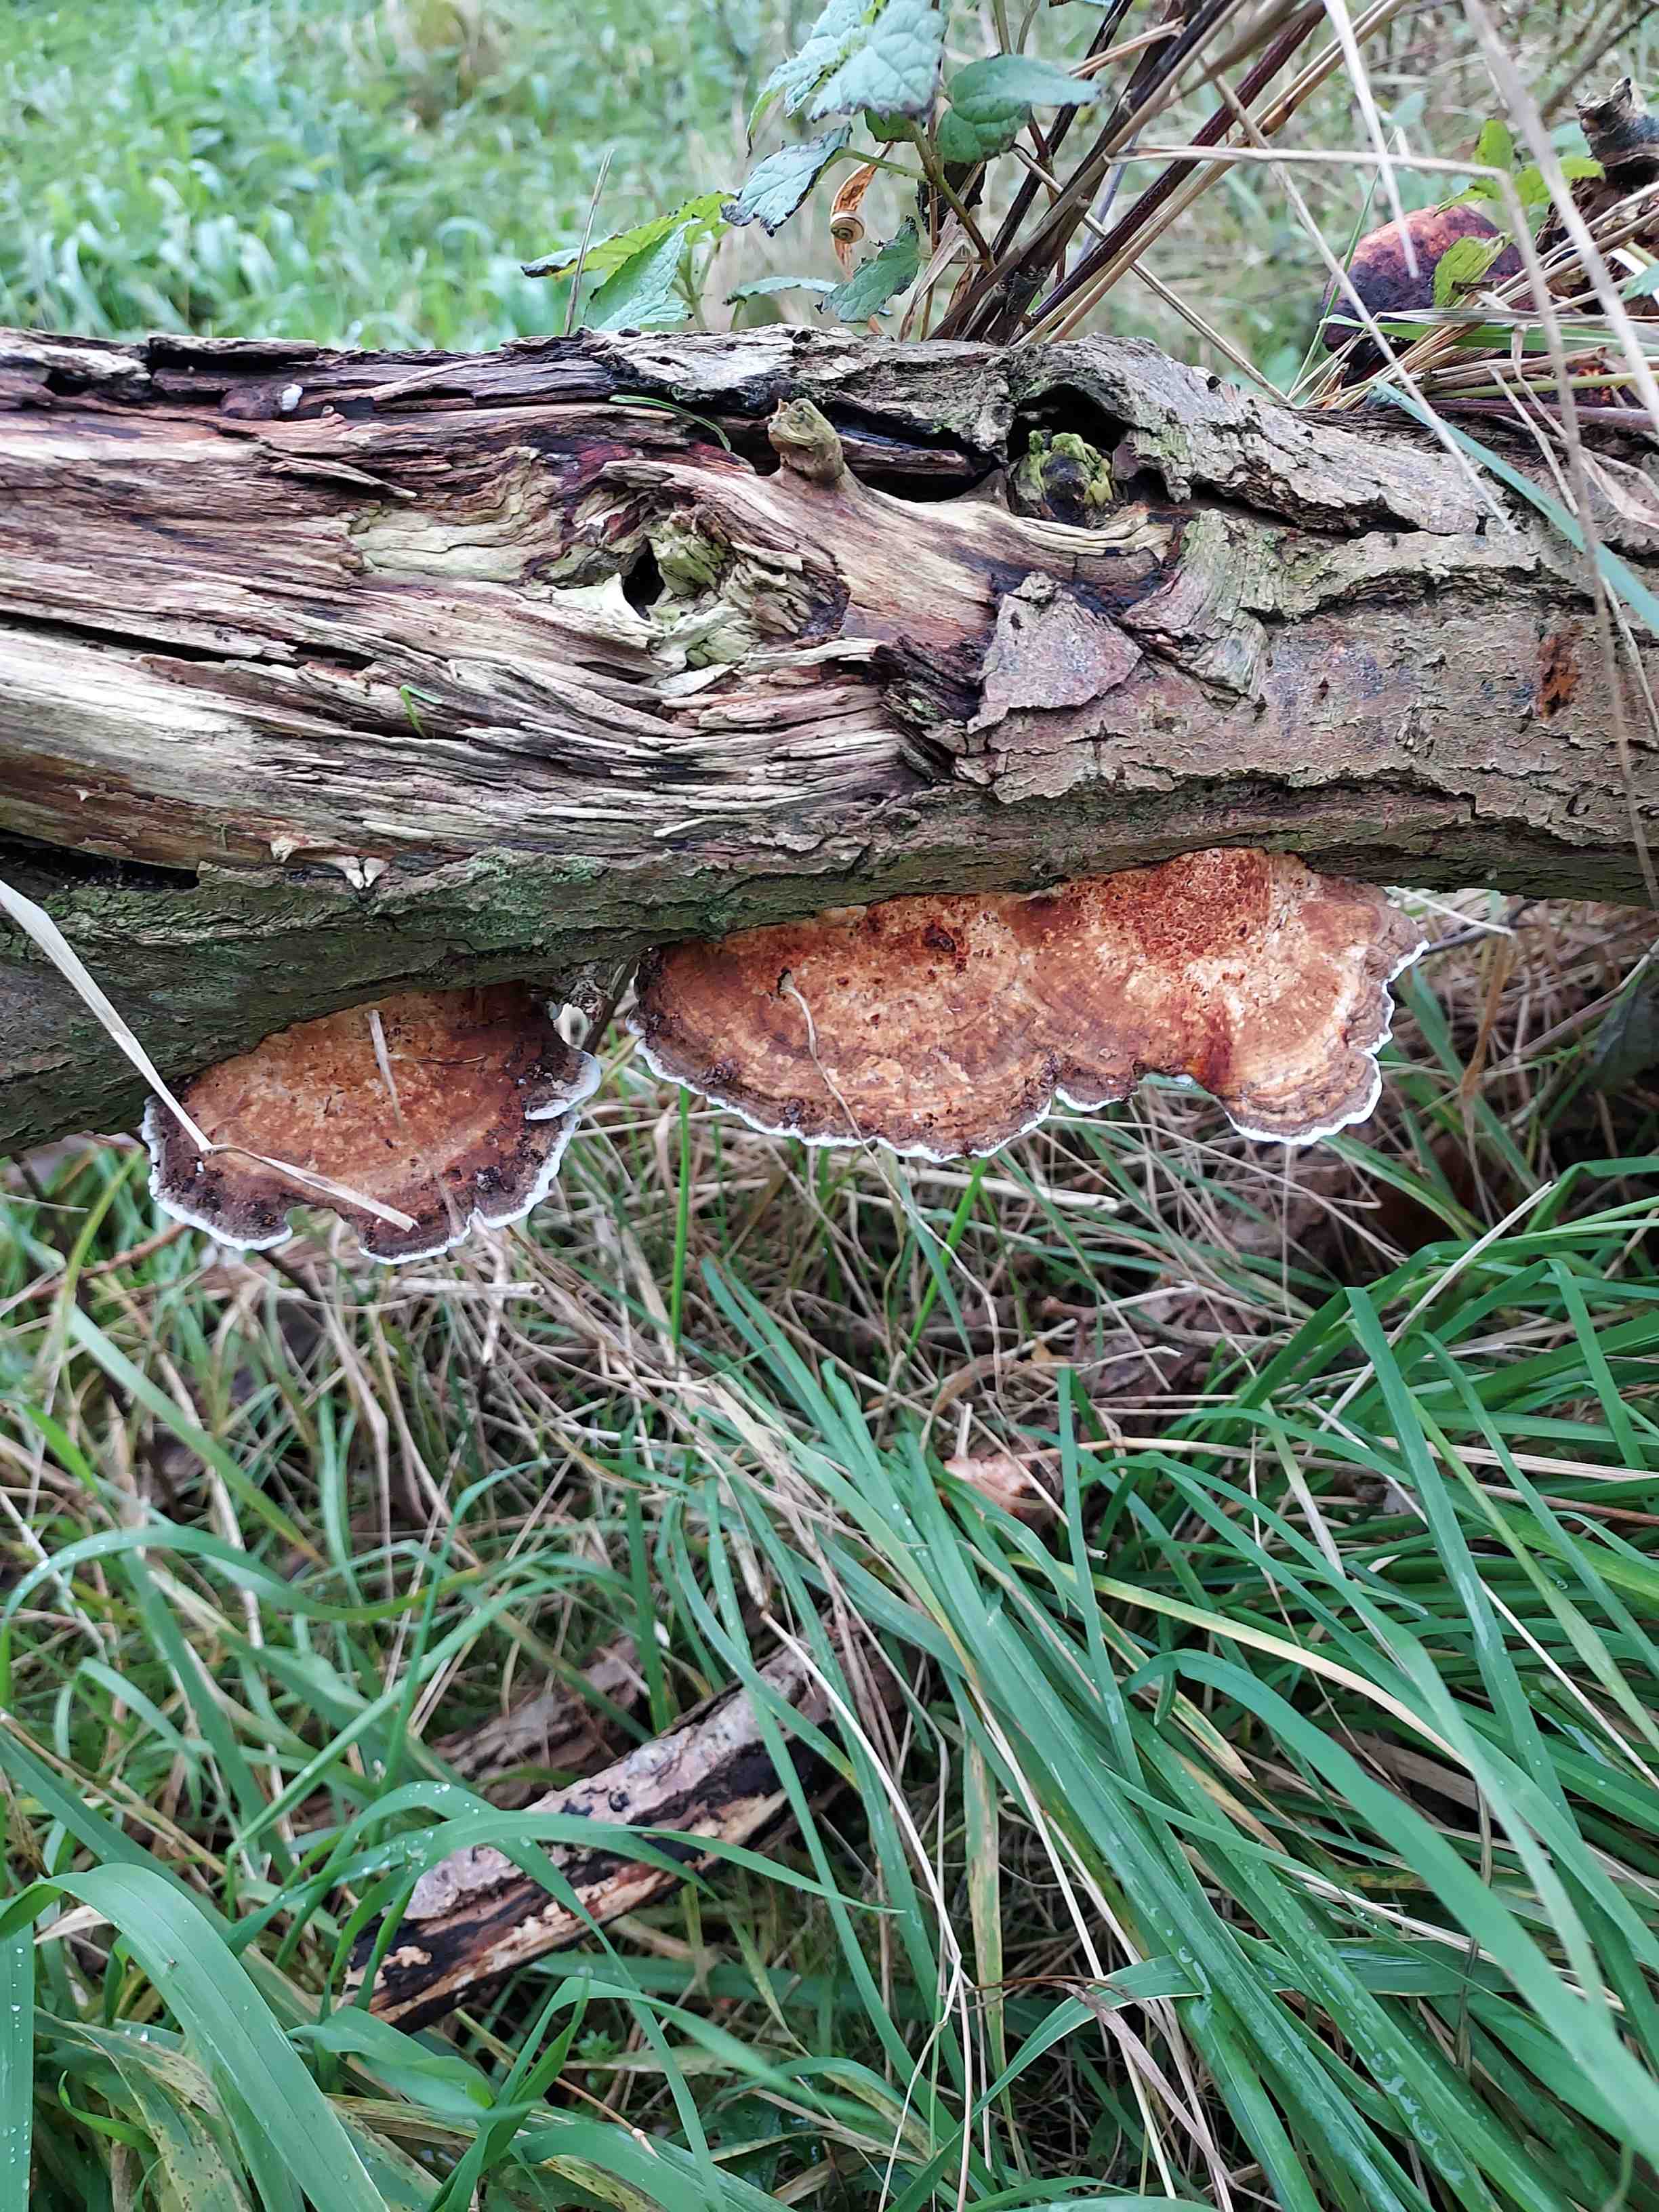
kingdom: Fungi
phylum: Basidiomycota
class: Agaricomycetes
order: Polyporales
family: Polyporaceae
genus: Daedaleopsis
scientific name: Daedaleopsis confragosa
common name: rødmende læderporesvamp
